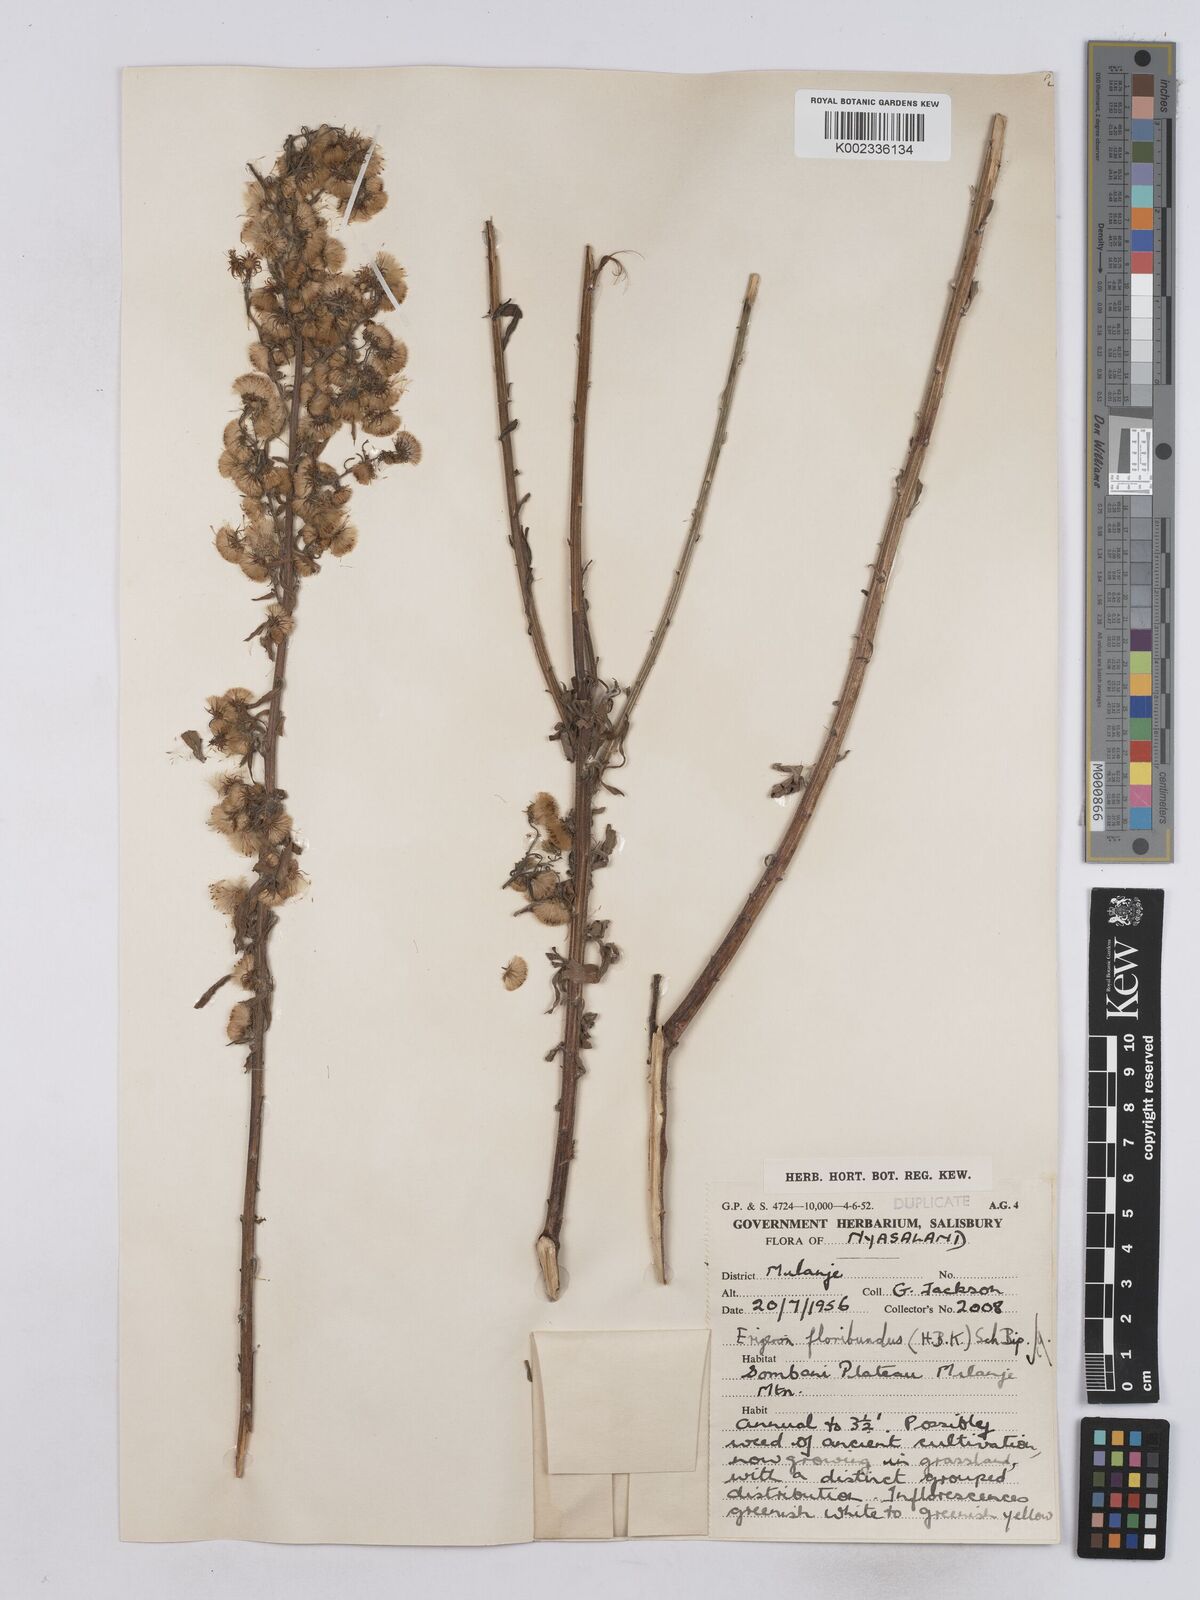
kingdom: Plantae
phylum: Tracheophyta
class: Magnoliopsida
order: Asterales
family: Asteraceae
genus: Erigeron
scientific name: Erigeron floribundus
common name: Bilbao fleabane
